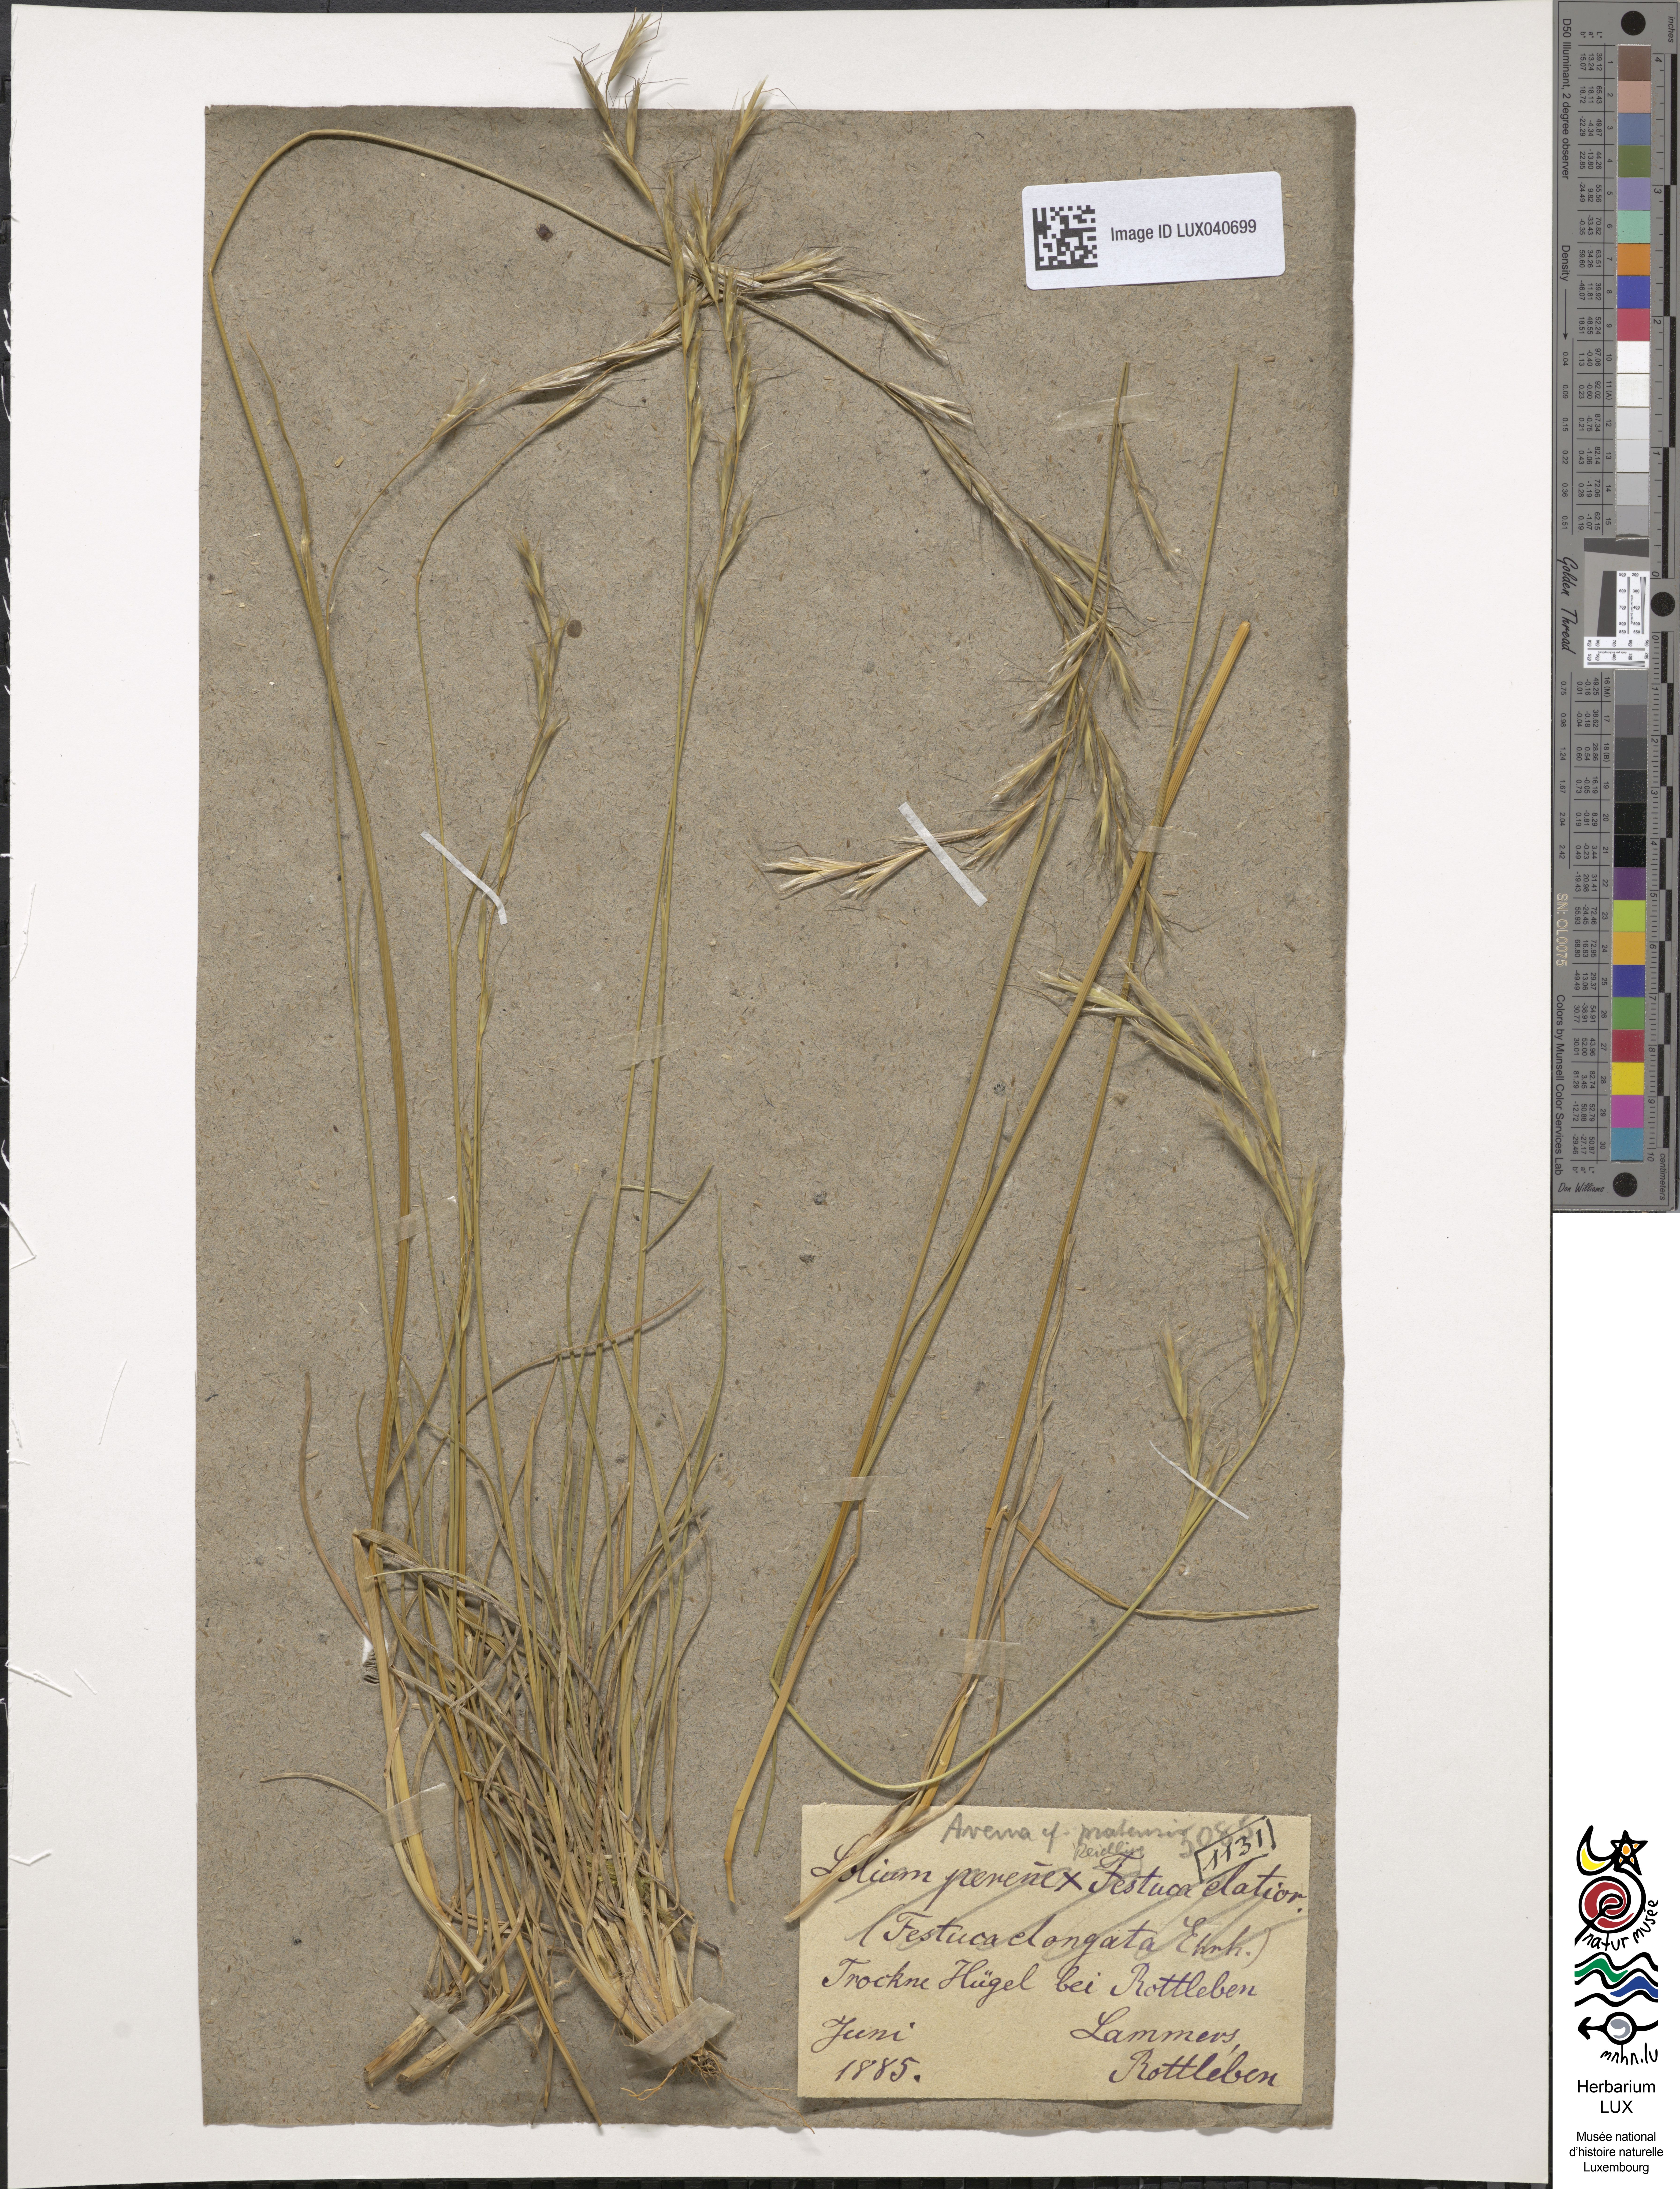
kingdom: Plantae
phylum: Tracheophyta
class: Liliopsida
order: Poales
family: Poaceae
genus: Lolium
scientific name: Lolium elongatum
